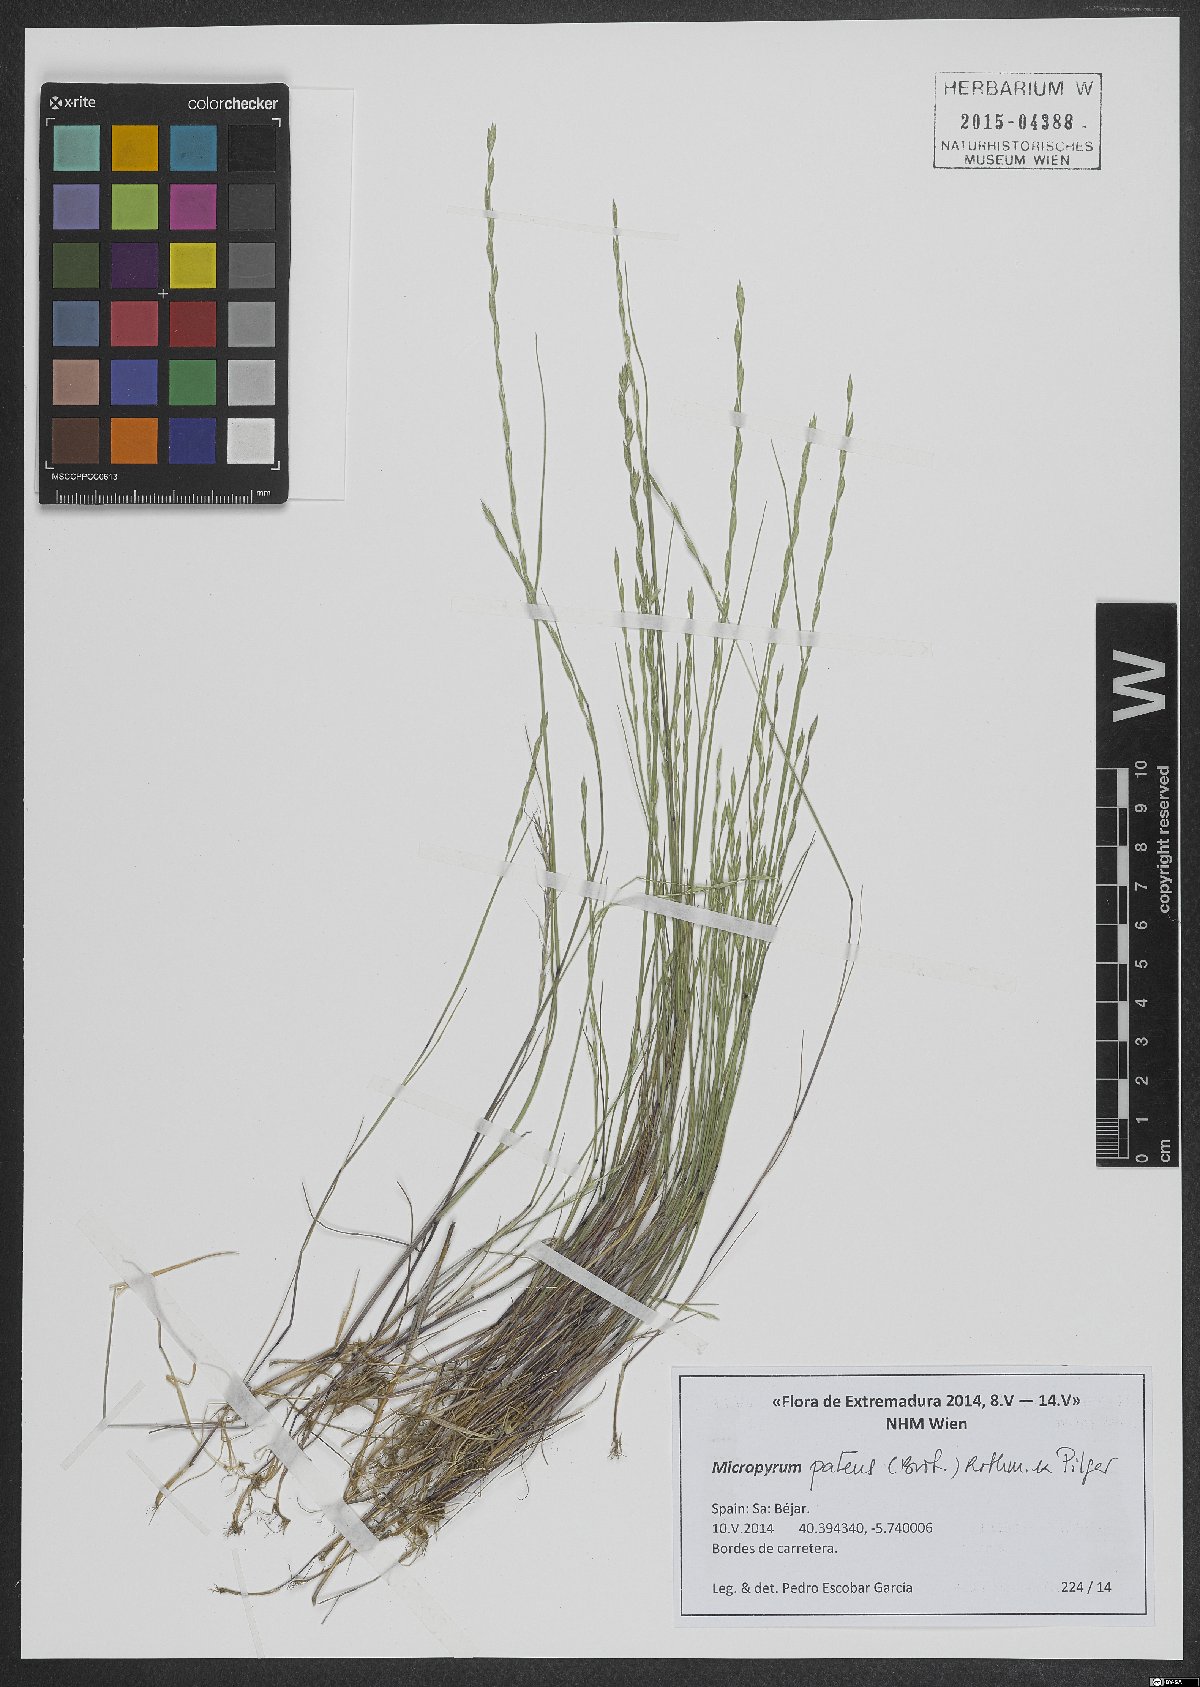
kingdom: Plantae
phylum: Tracheophyta
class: Liliopsida
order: Poales
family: Poaceae
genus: Festuca
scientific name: Festuca Micropyrum patens
